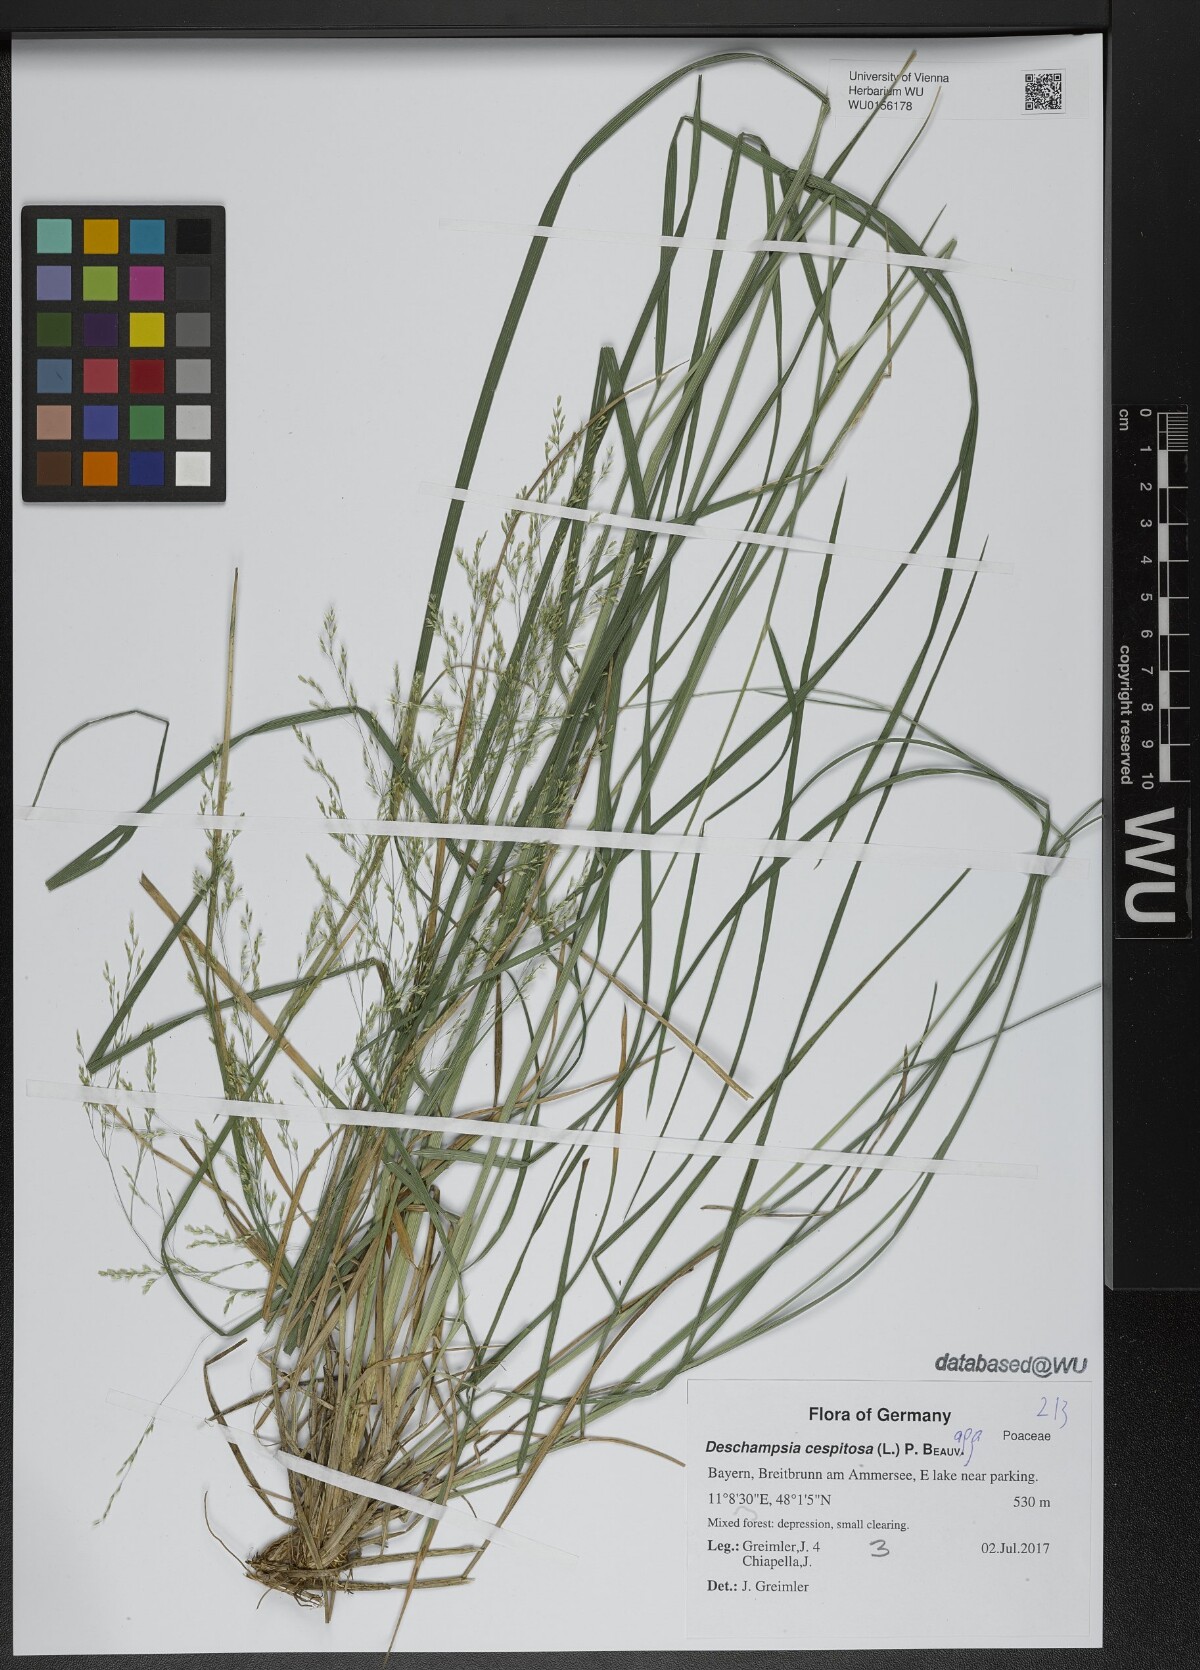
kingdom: Plantae
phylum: Tracheophyta
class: Liliopsida
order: Poales
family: Poaceae
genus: Deschampsia
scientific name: Deschampsia cespitosa
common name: Tufted hair-grass
